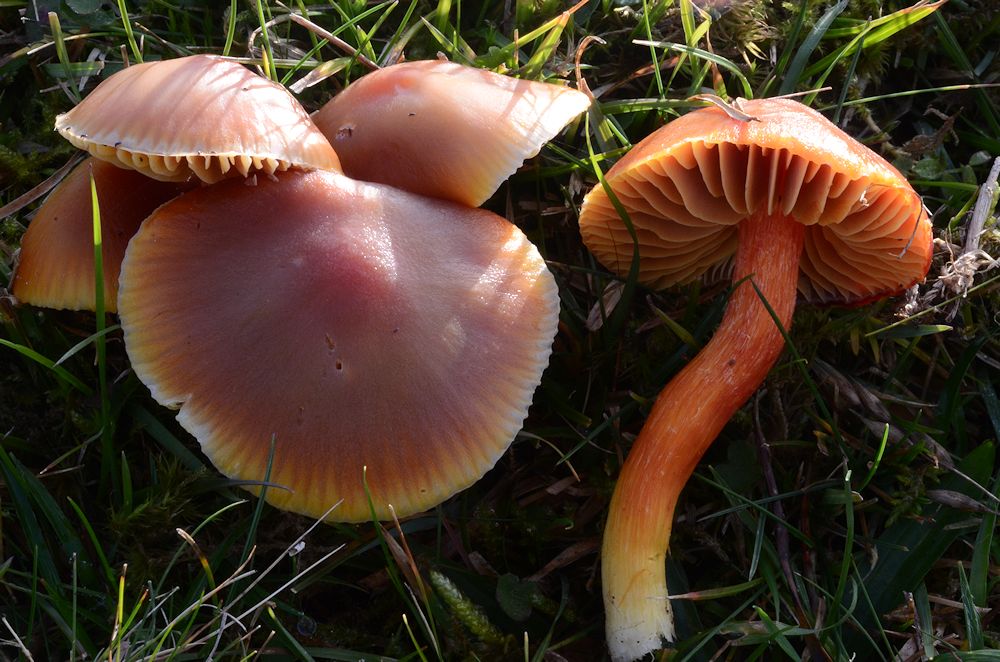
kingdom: Fungi
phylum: Basidiomycota
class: Agaricomycetes
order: Agaricales
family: Hygrophoraceae
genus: Hygrocybe
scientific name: Hygrocybe punicea
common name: skarlagen-vokshat
